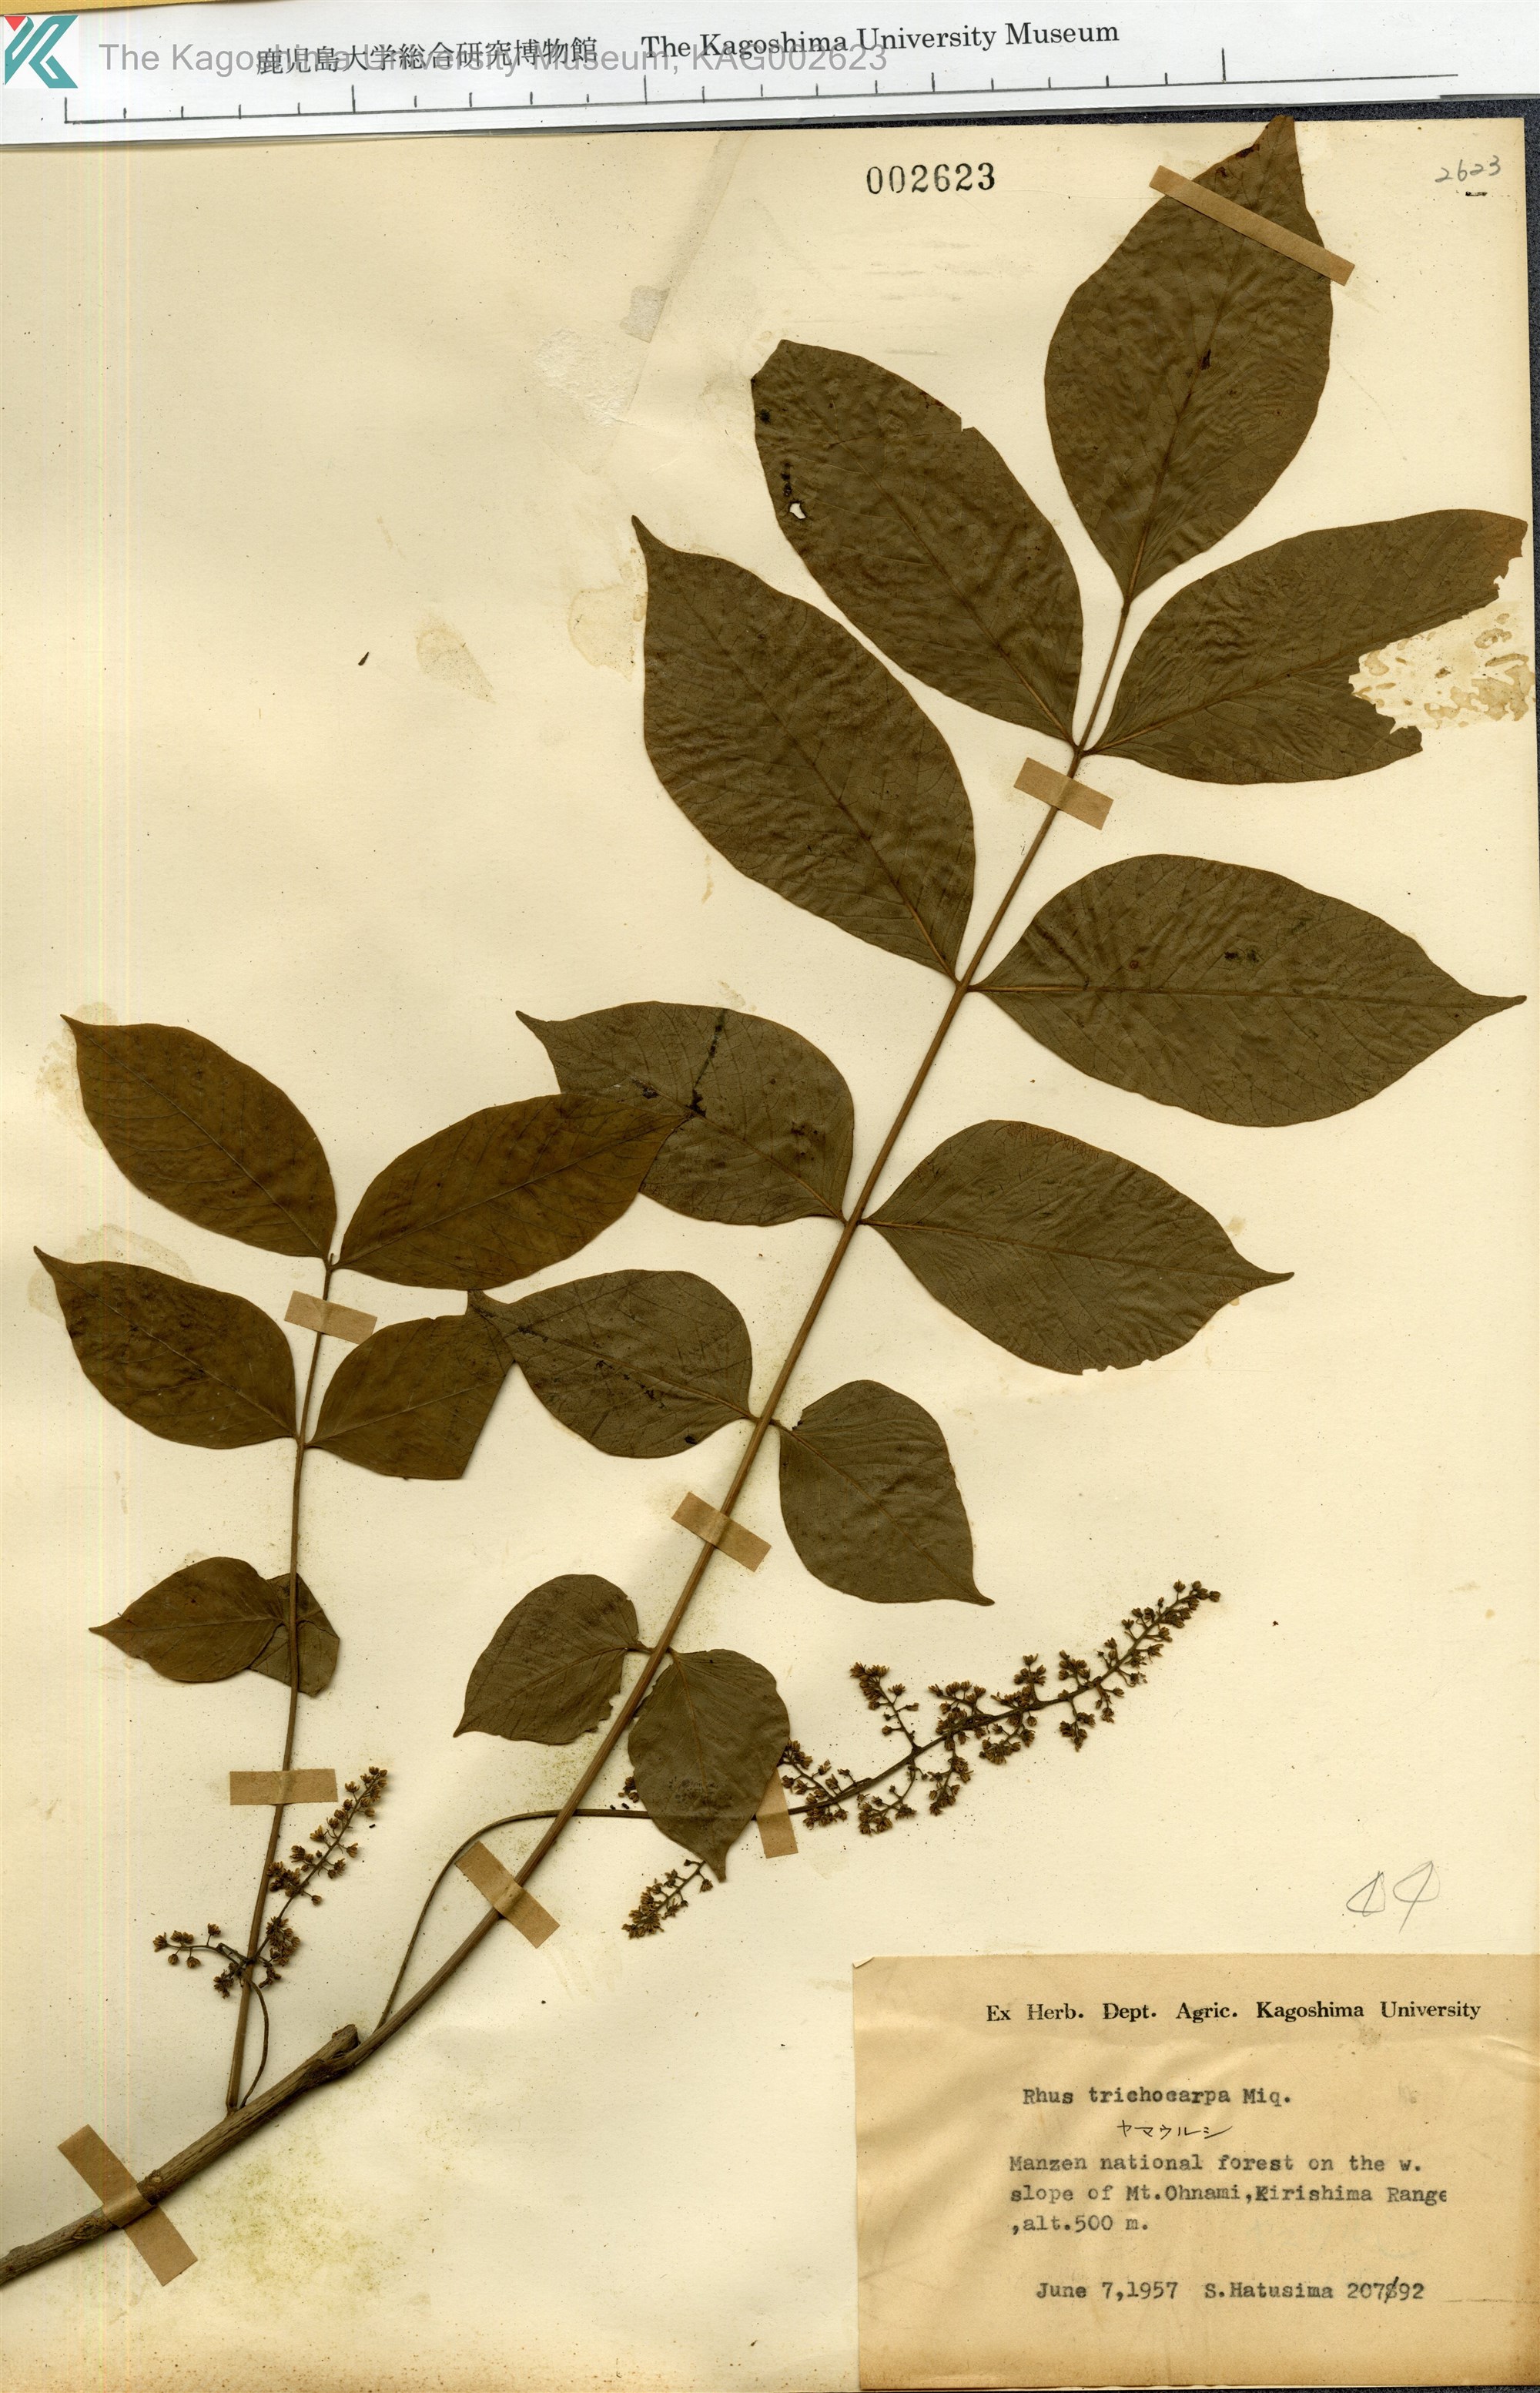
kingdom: Plantae
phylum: Tracheophyta
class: Magnoliopsida
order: Sapindales
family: Anacardiaceae
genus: Toxicodendron
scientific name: Toxicodendron trichocarpum
